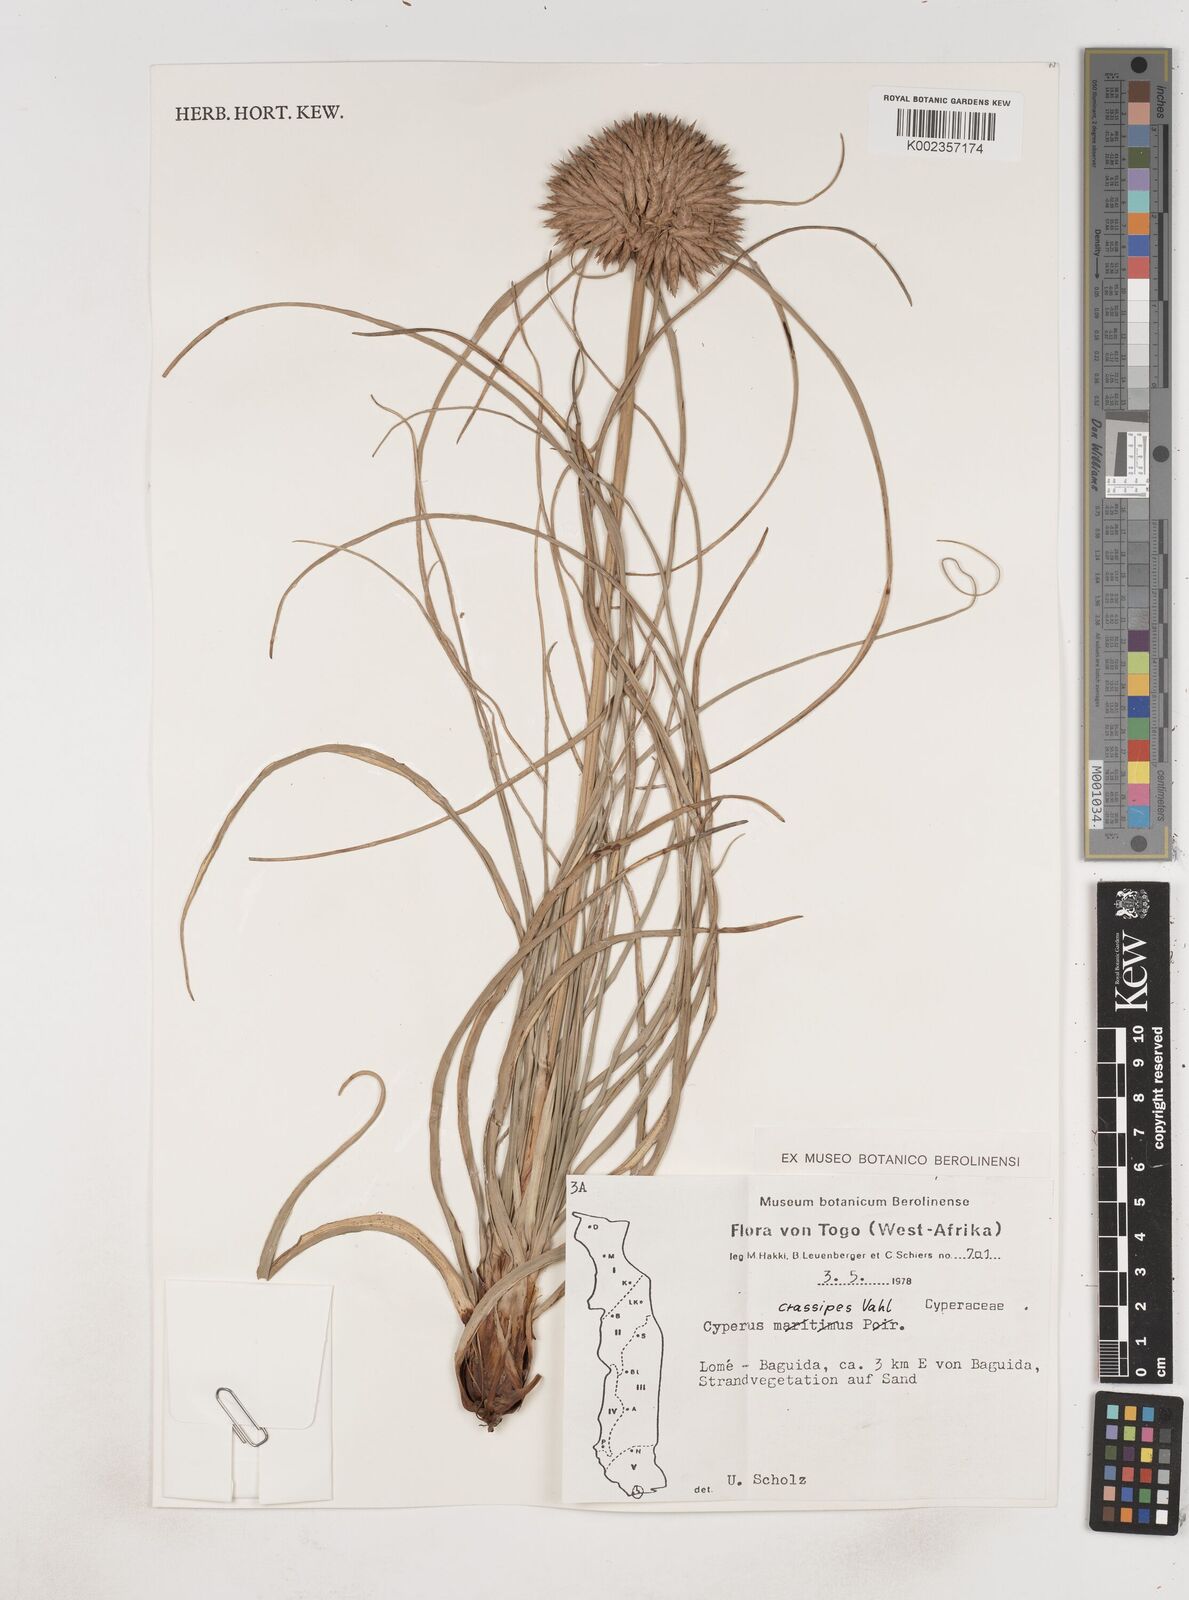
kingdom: Plantae
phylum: Tracheophyta
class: Liliopsida
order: Poales
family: Cyperaceae
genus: Cyperus
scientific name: Cyperus crassipes
